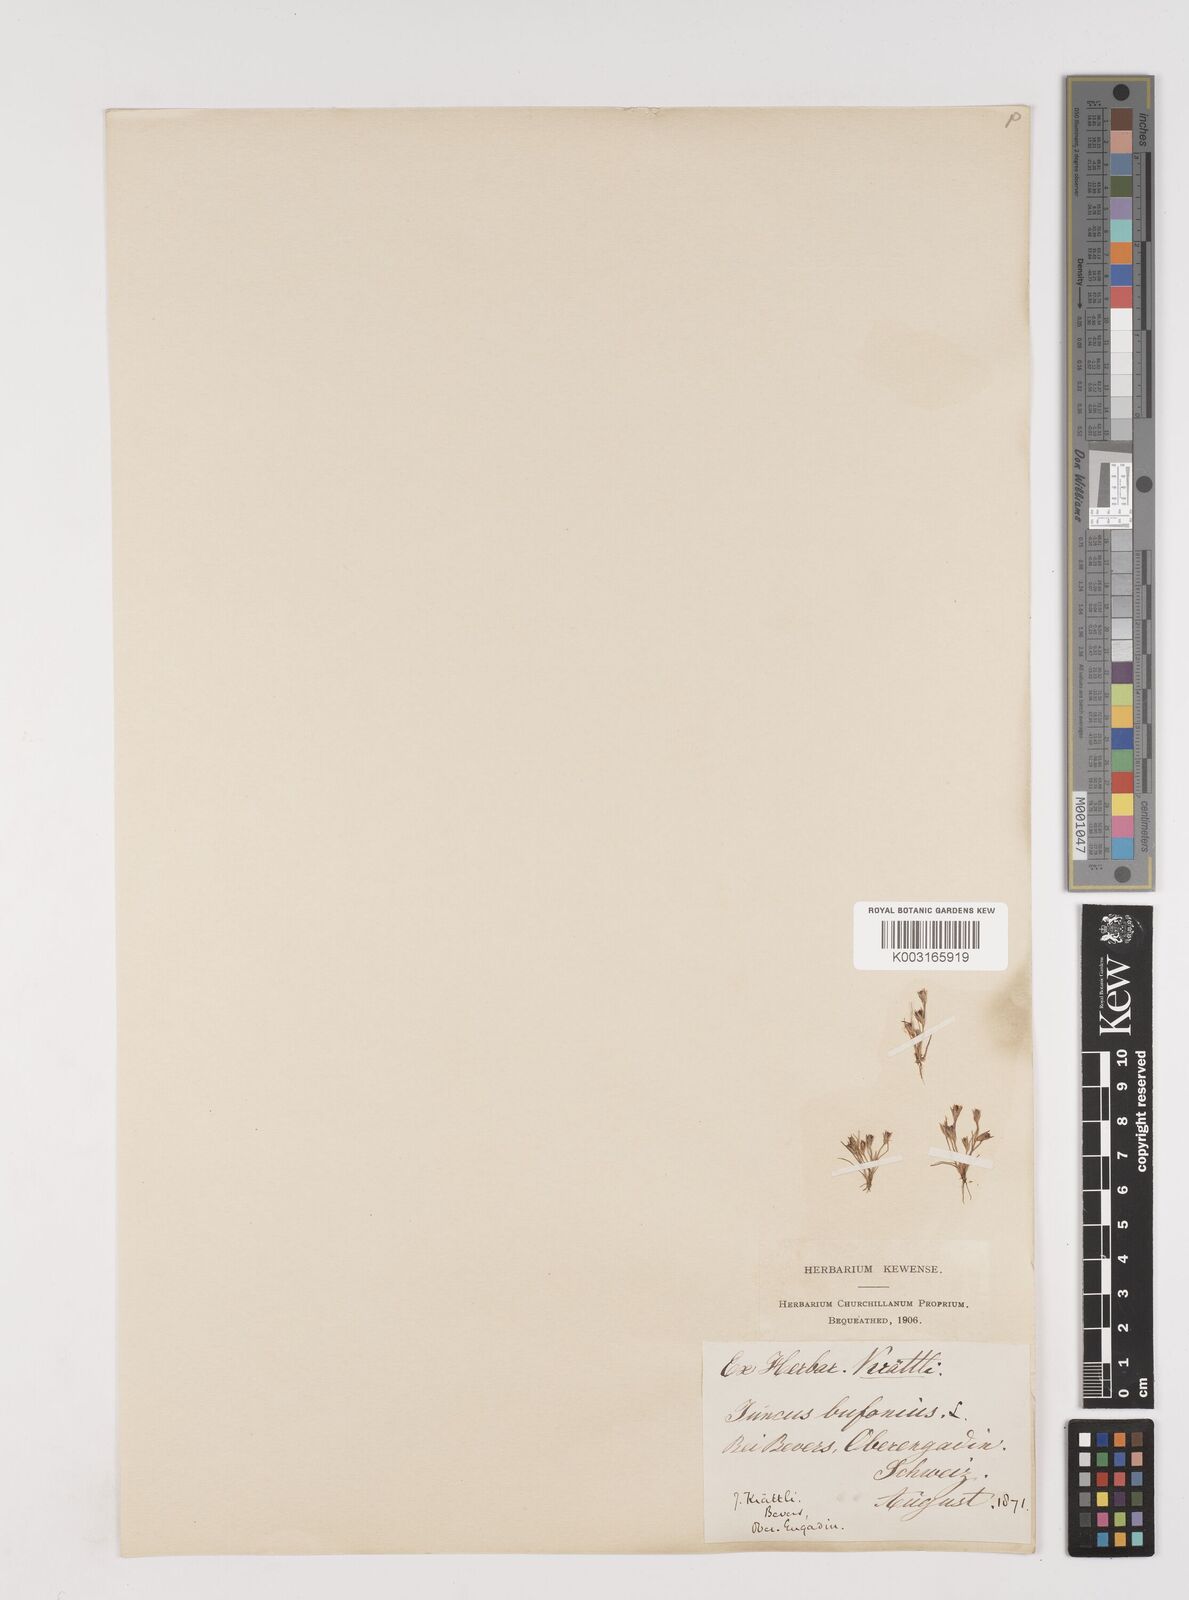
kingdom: Plantae
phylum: Tracheophyta
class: Liliopsida
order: Poales
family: Juncaceae
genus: Juncus
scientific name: Juncus bufonius
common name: Toad rush
